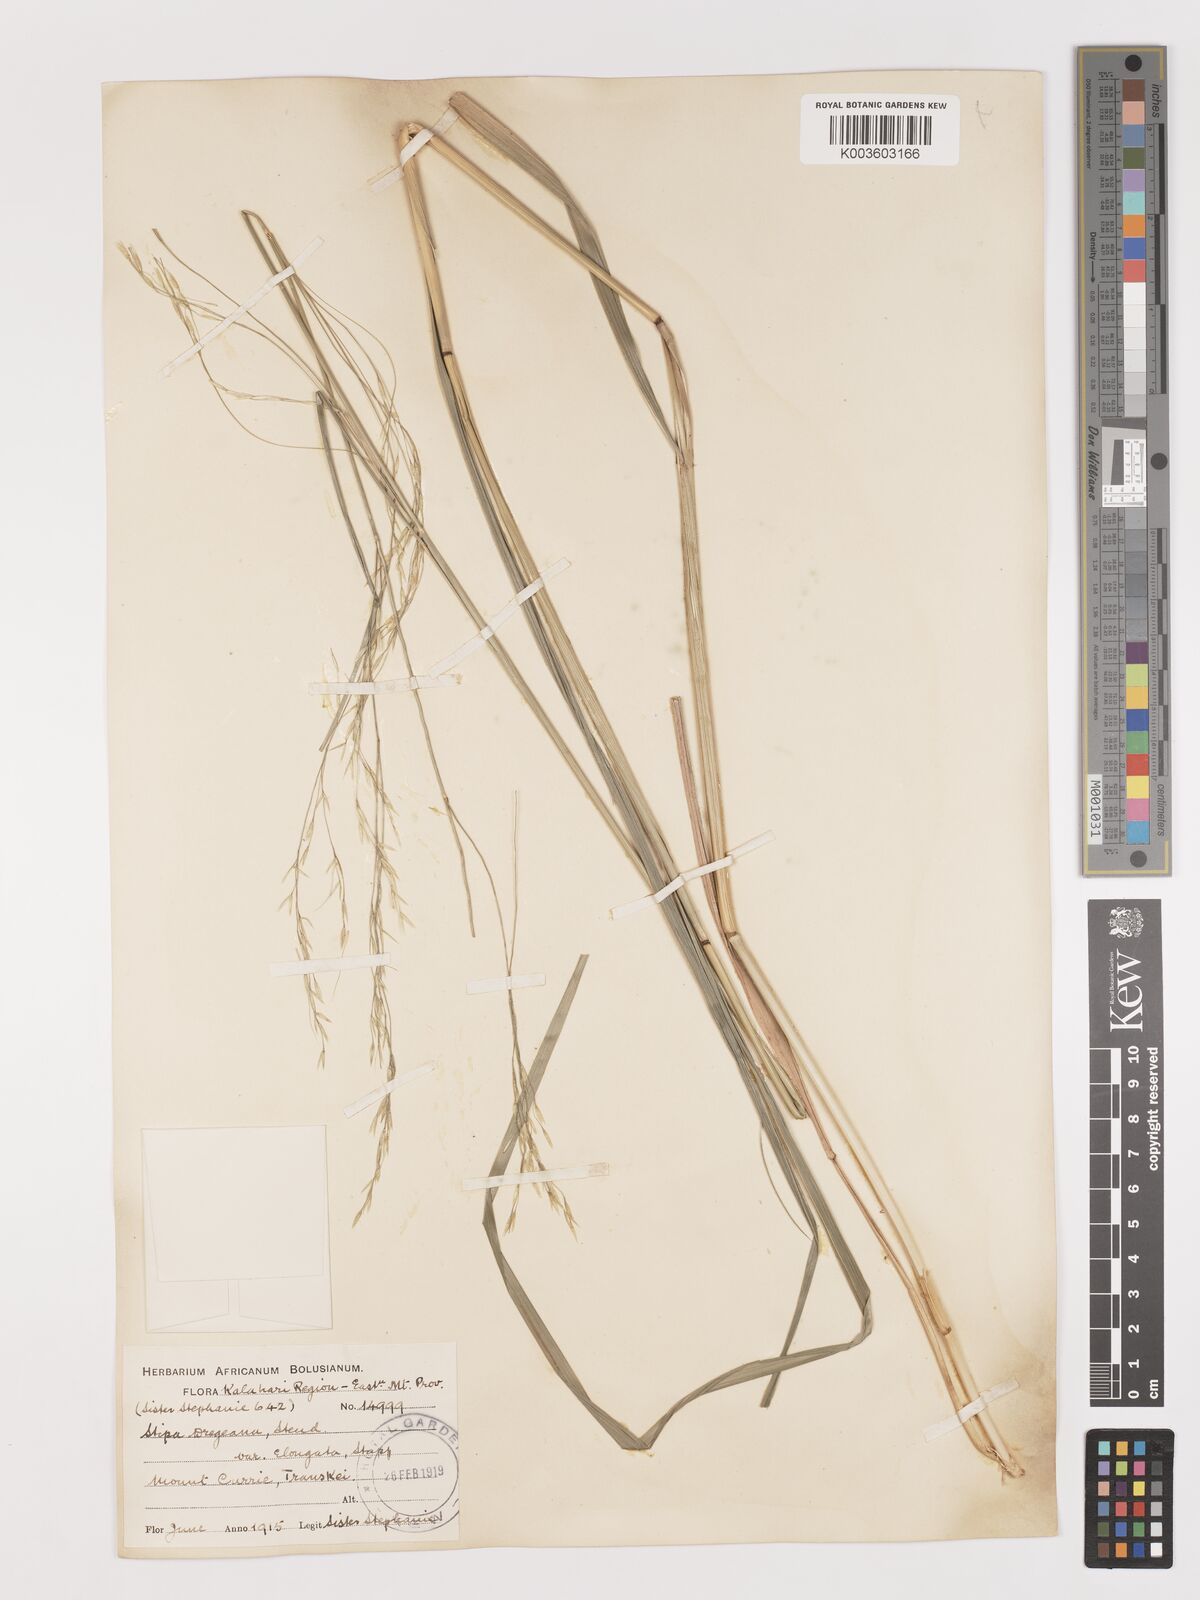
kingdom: Plantae
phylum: Tracheophyta
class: Liliopsida
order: Poales
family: Poaceae
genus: Stipa
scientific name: Stipa dregeana
